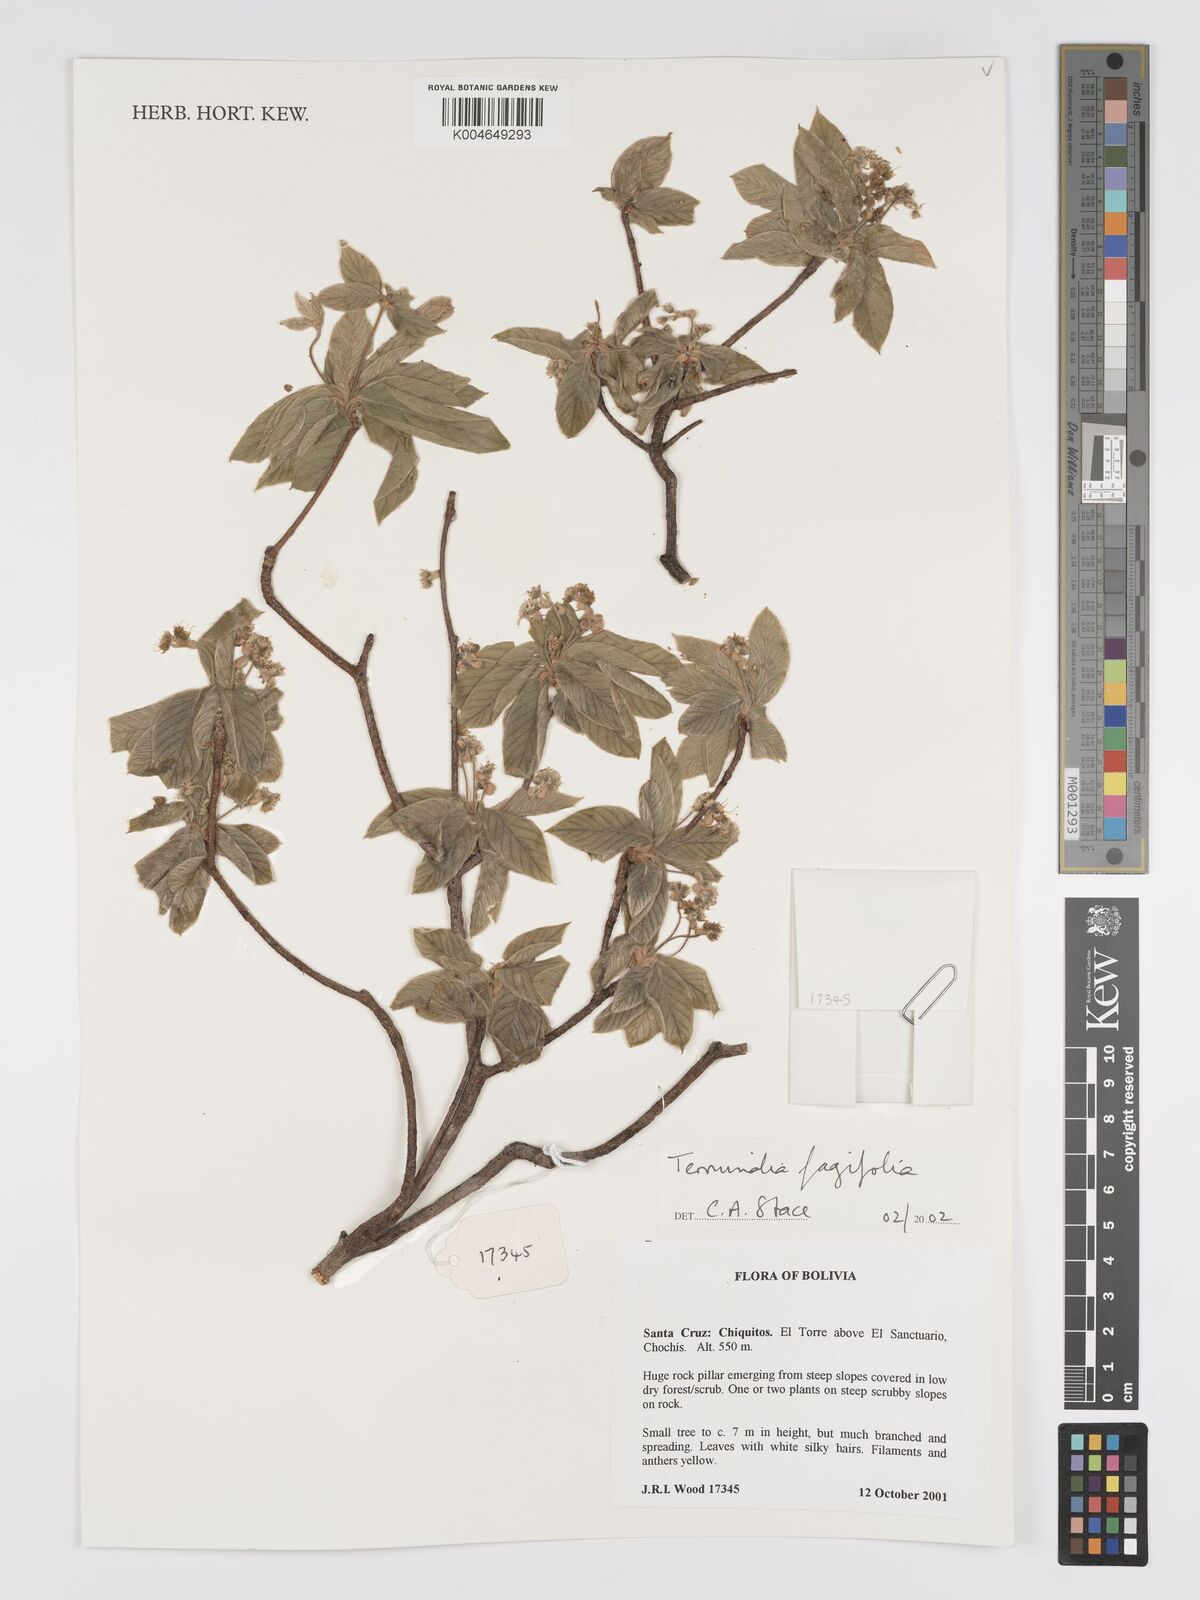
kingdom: Plantae
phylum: Tracheophyta
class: Magnoliopsida
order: Myrtales
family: Combretaceae
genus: Terminalia
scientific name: Terminalia fagifolia
